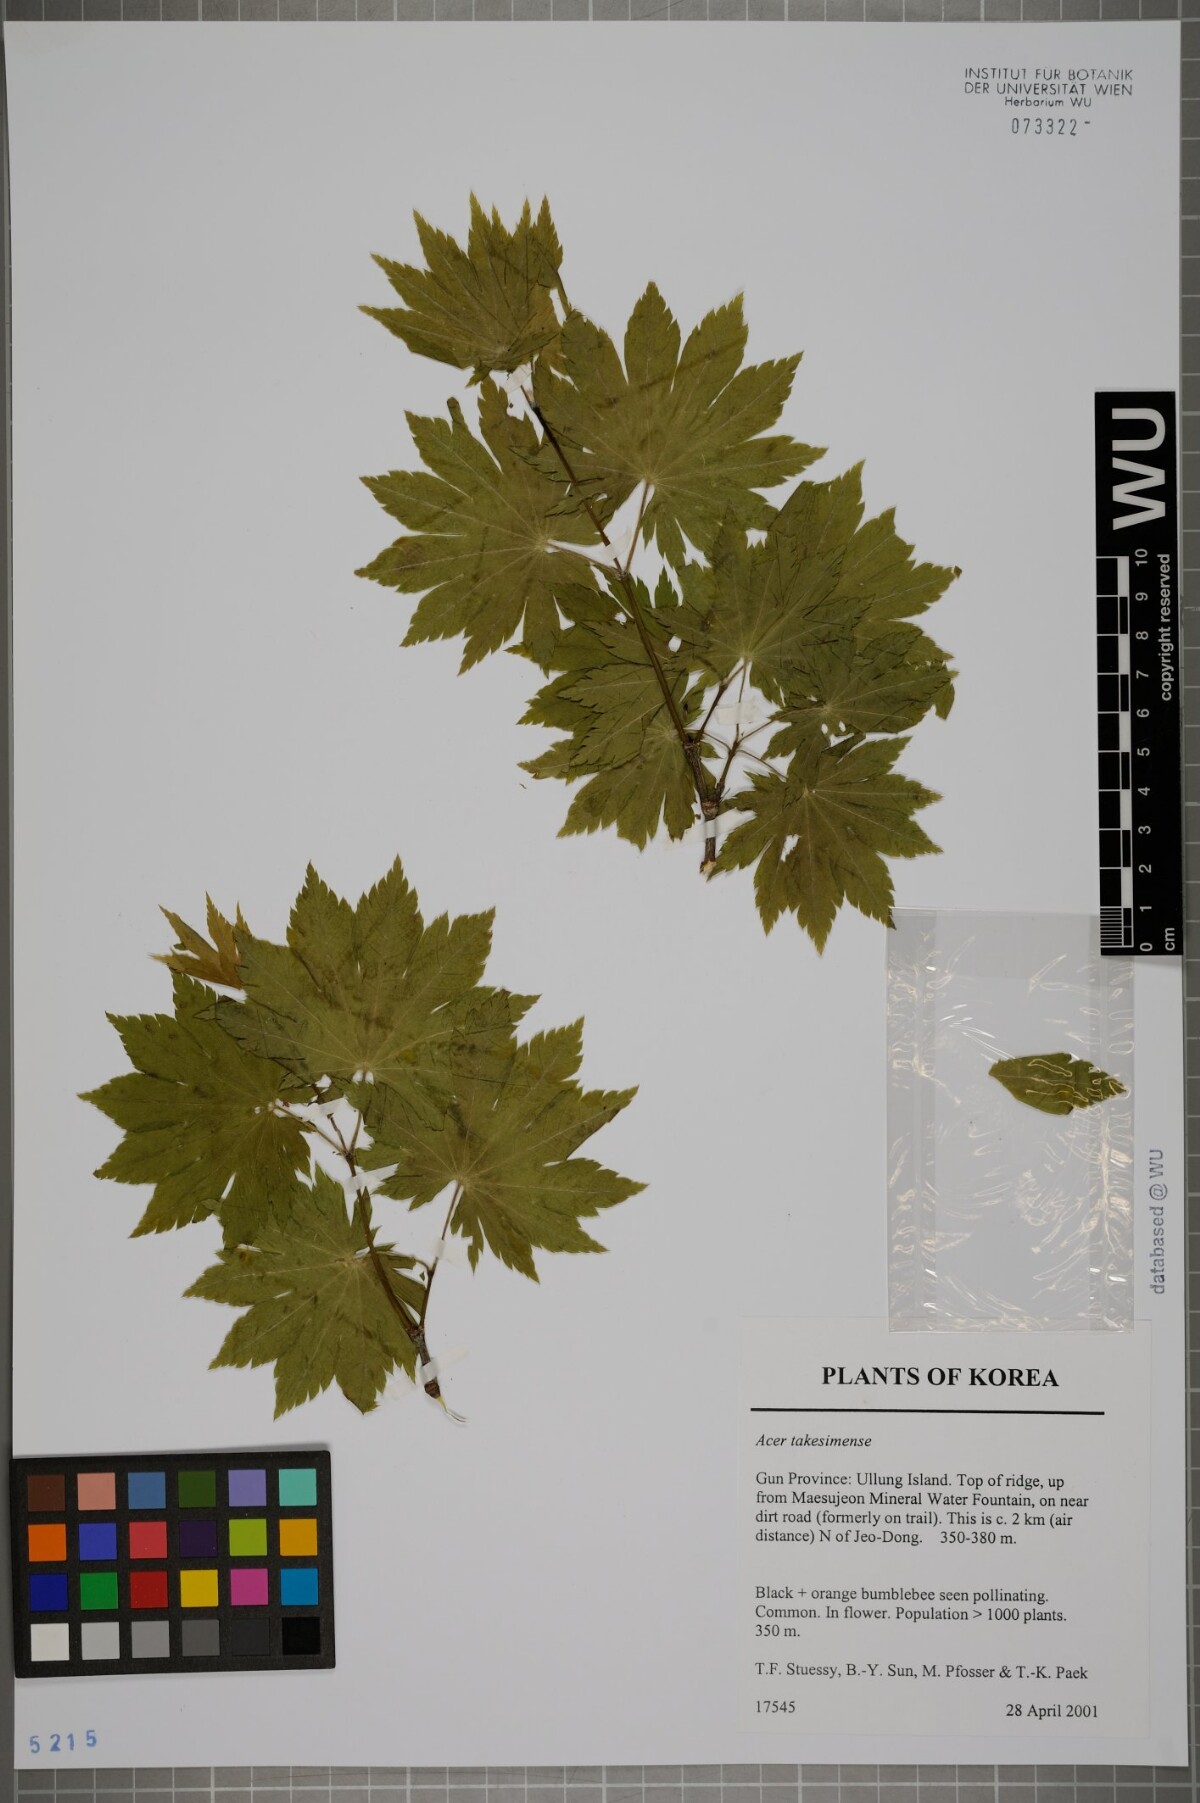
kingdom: Plantae
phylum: Tracheophyta
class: Magnoliopsida
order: Sapindales
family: Sapindaceae
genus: Acer
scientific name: Acer pseudosieboldianum
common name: Korean maple
